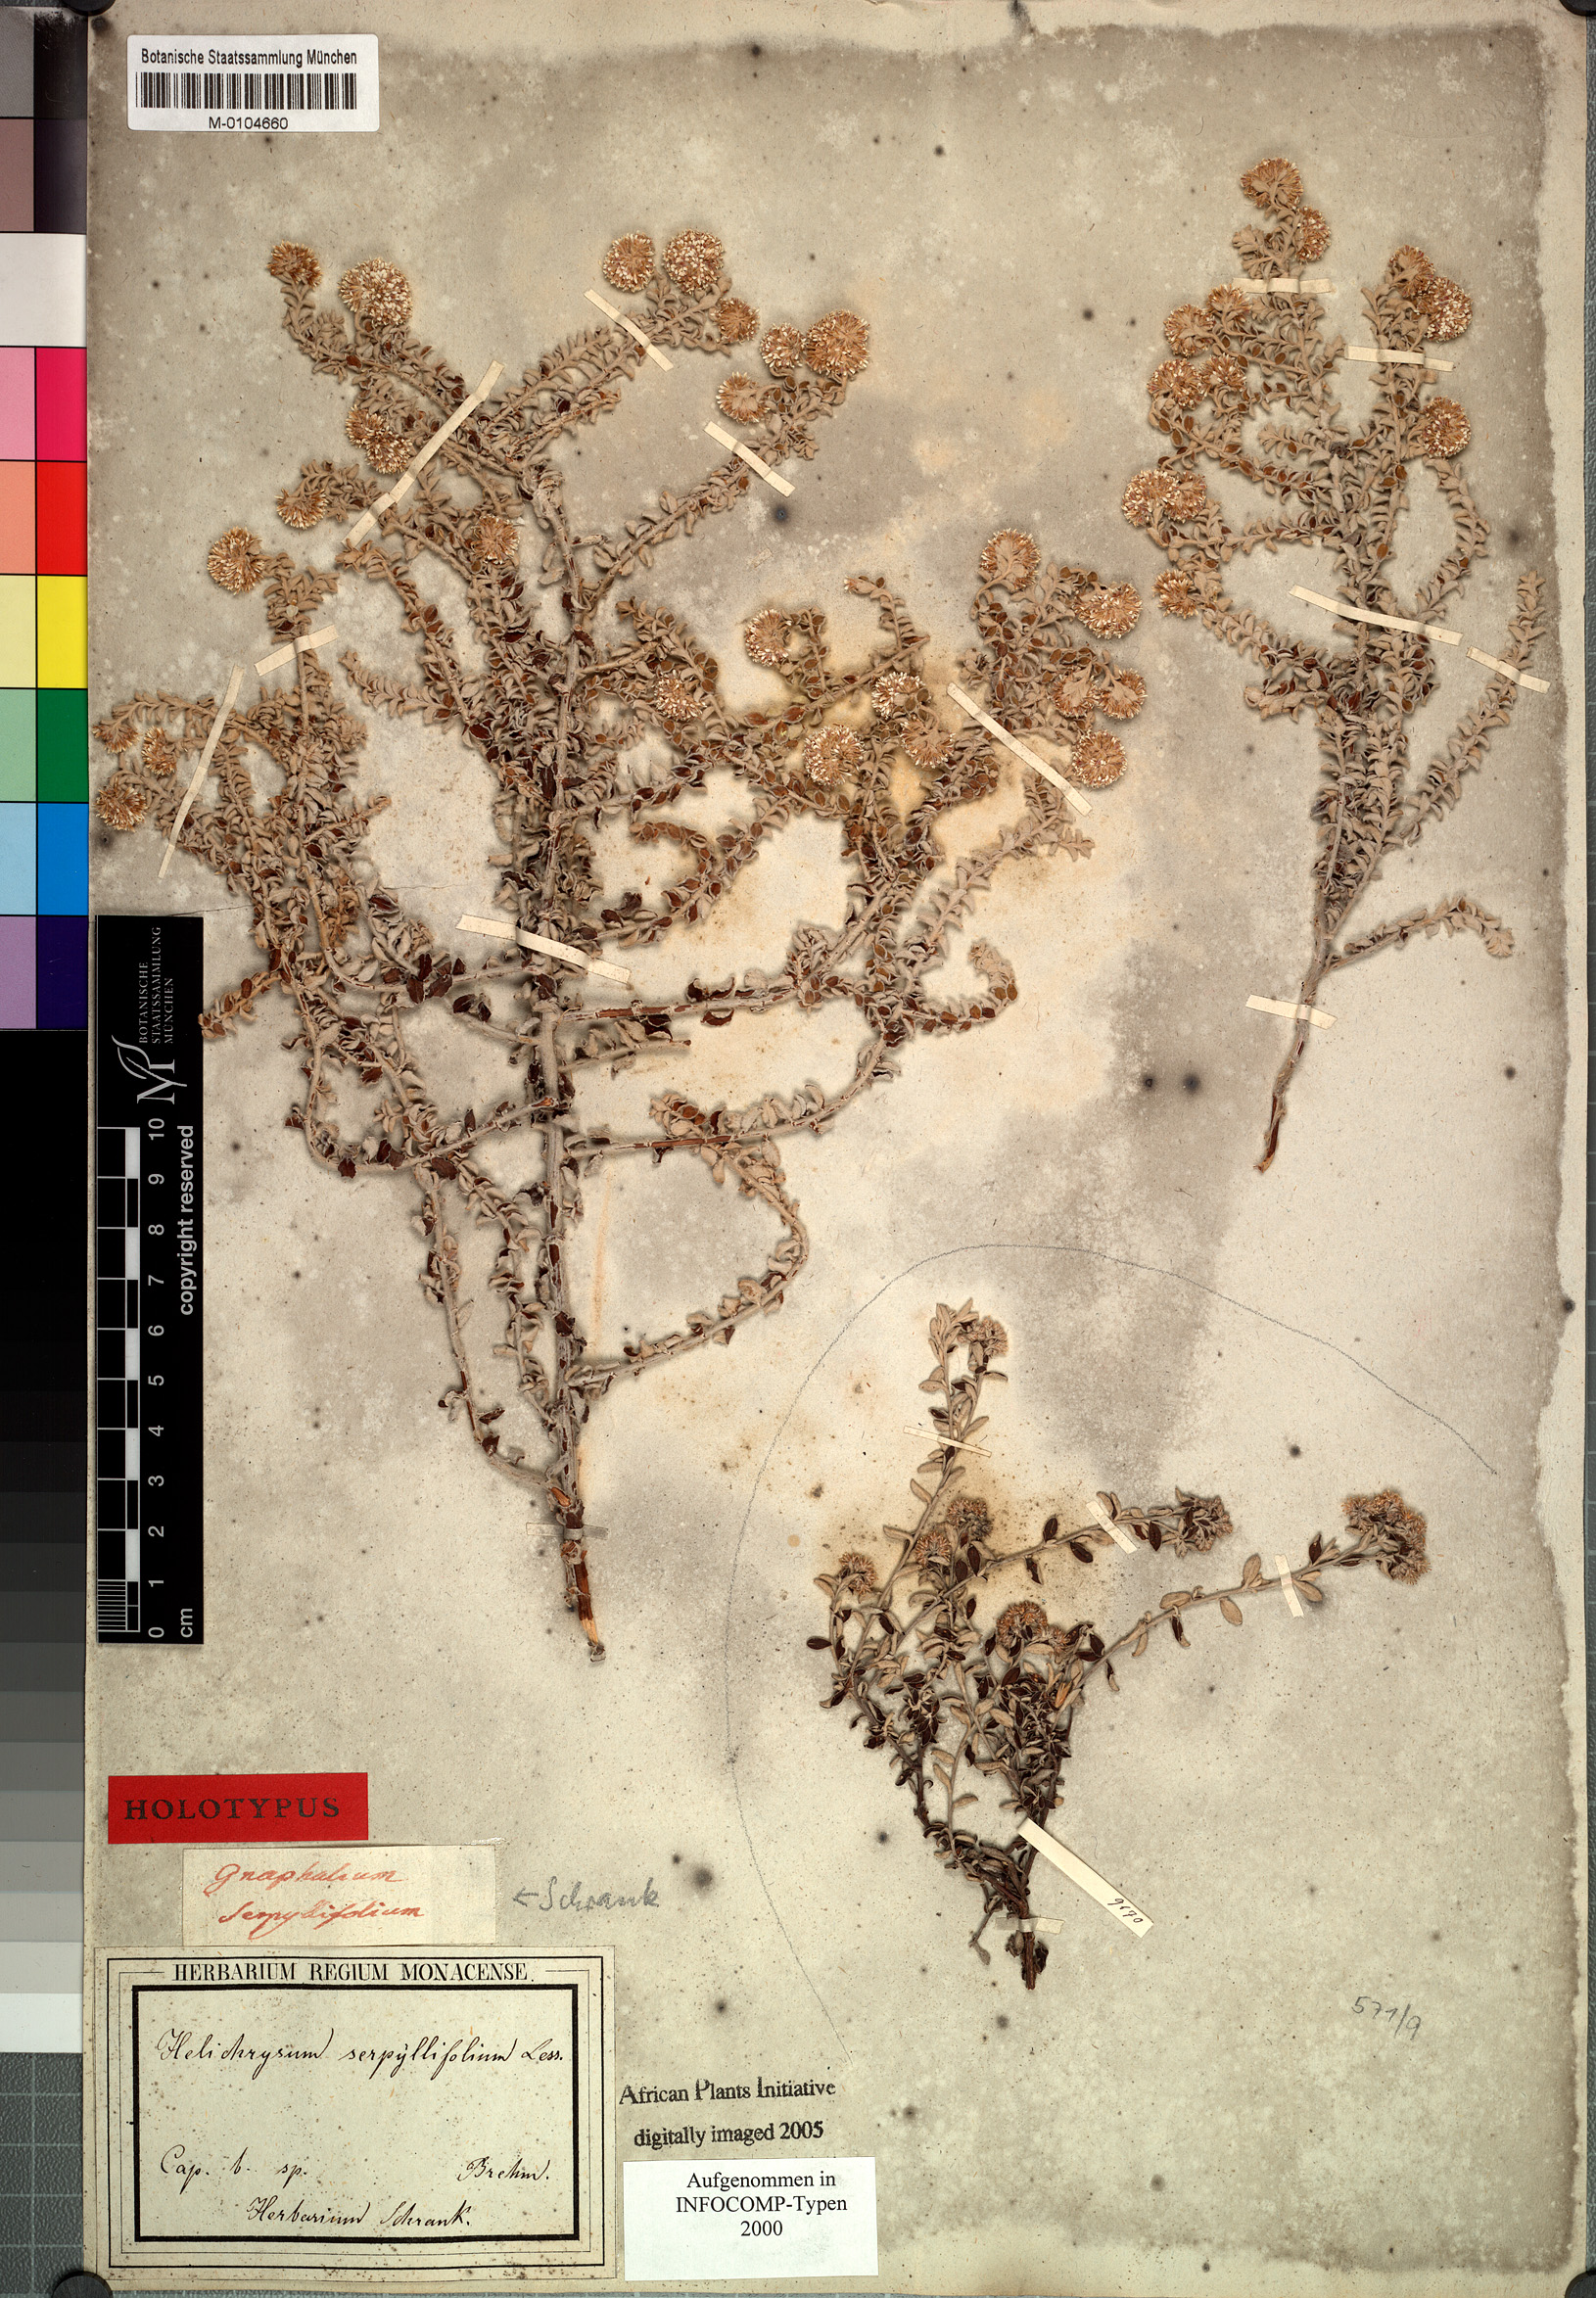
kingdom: Plantae
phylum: Tracheophyta
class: Magnoliopsida
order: Asterales
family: Asteraceae
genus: Plecostachys
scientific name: Plecostachys serpyllifolia
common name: Petite licorice
